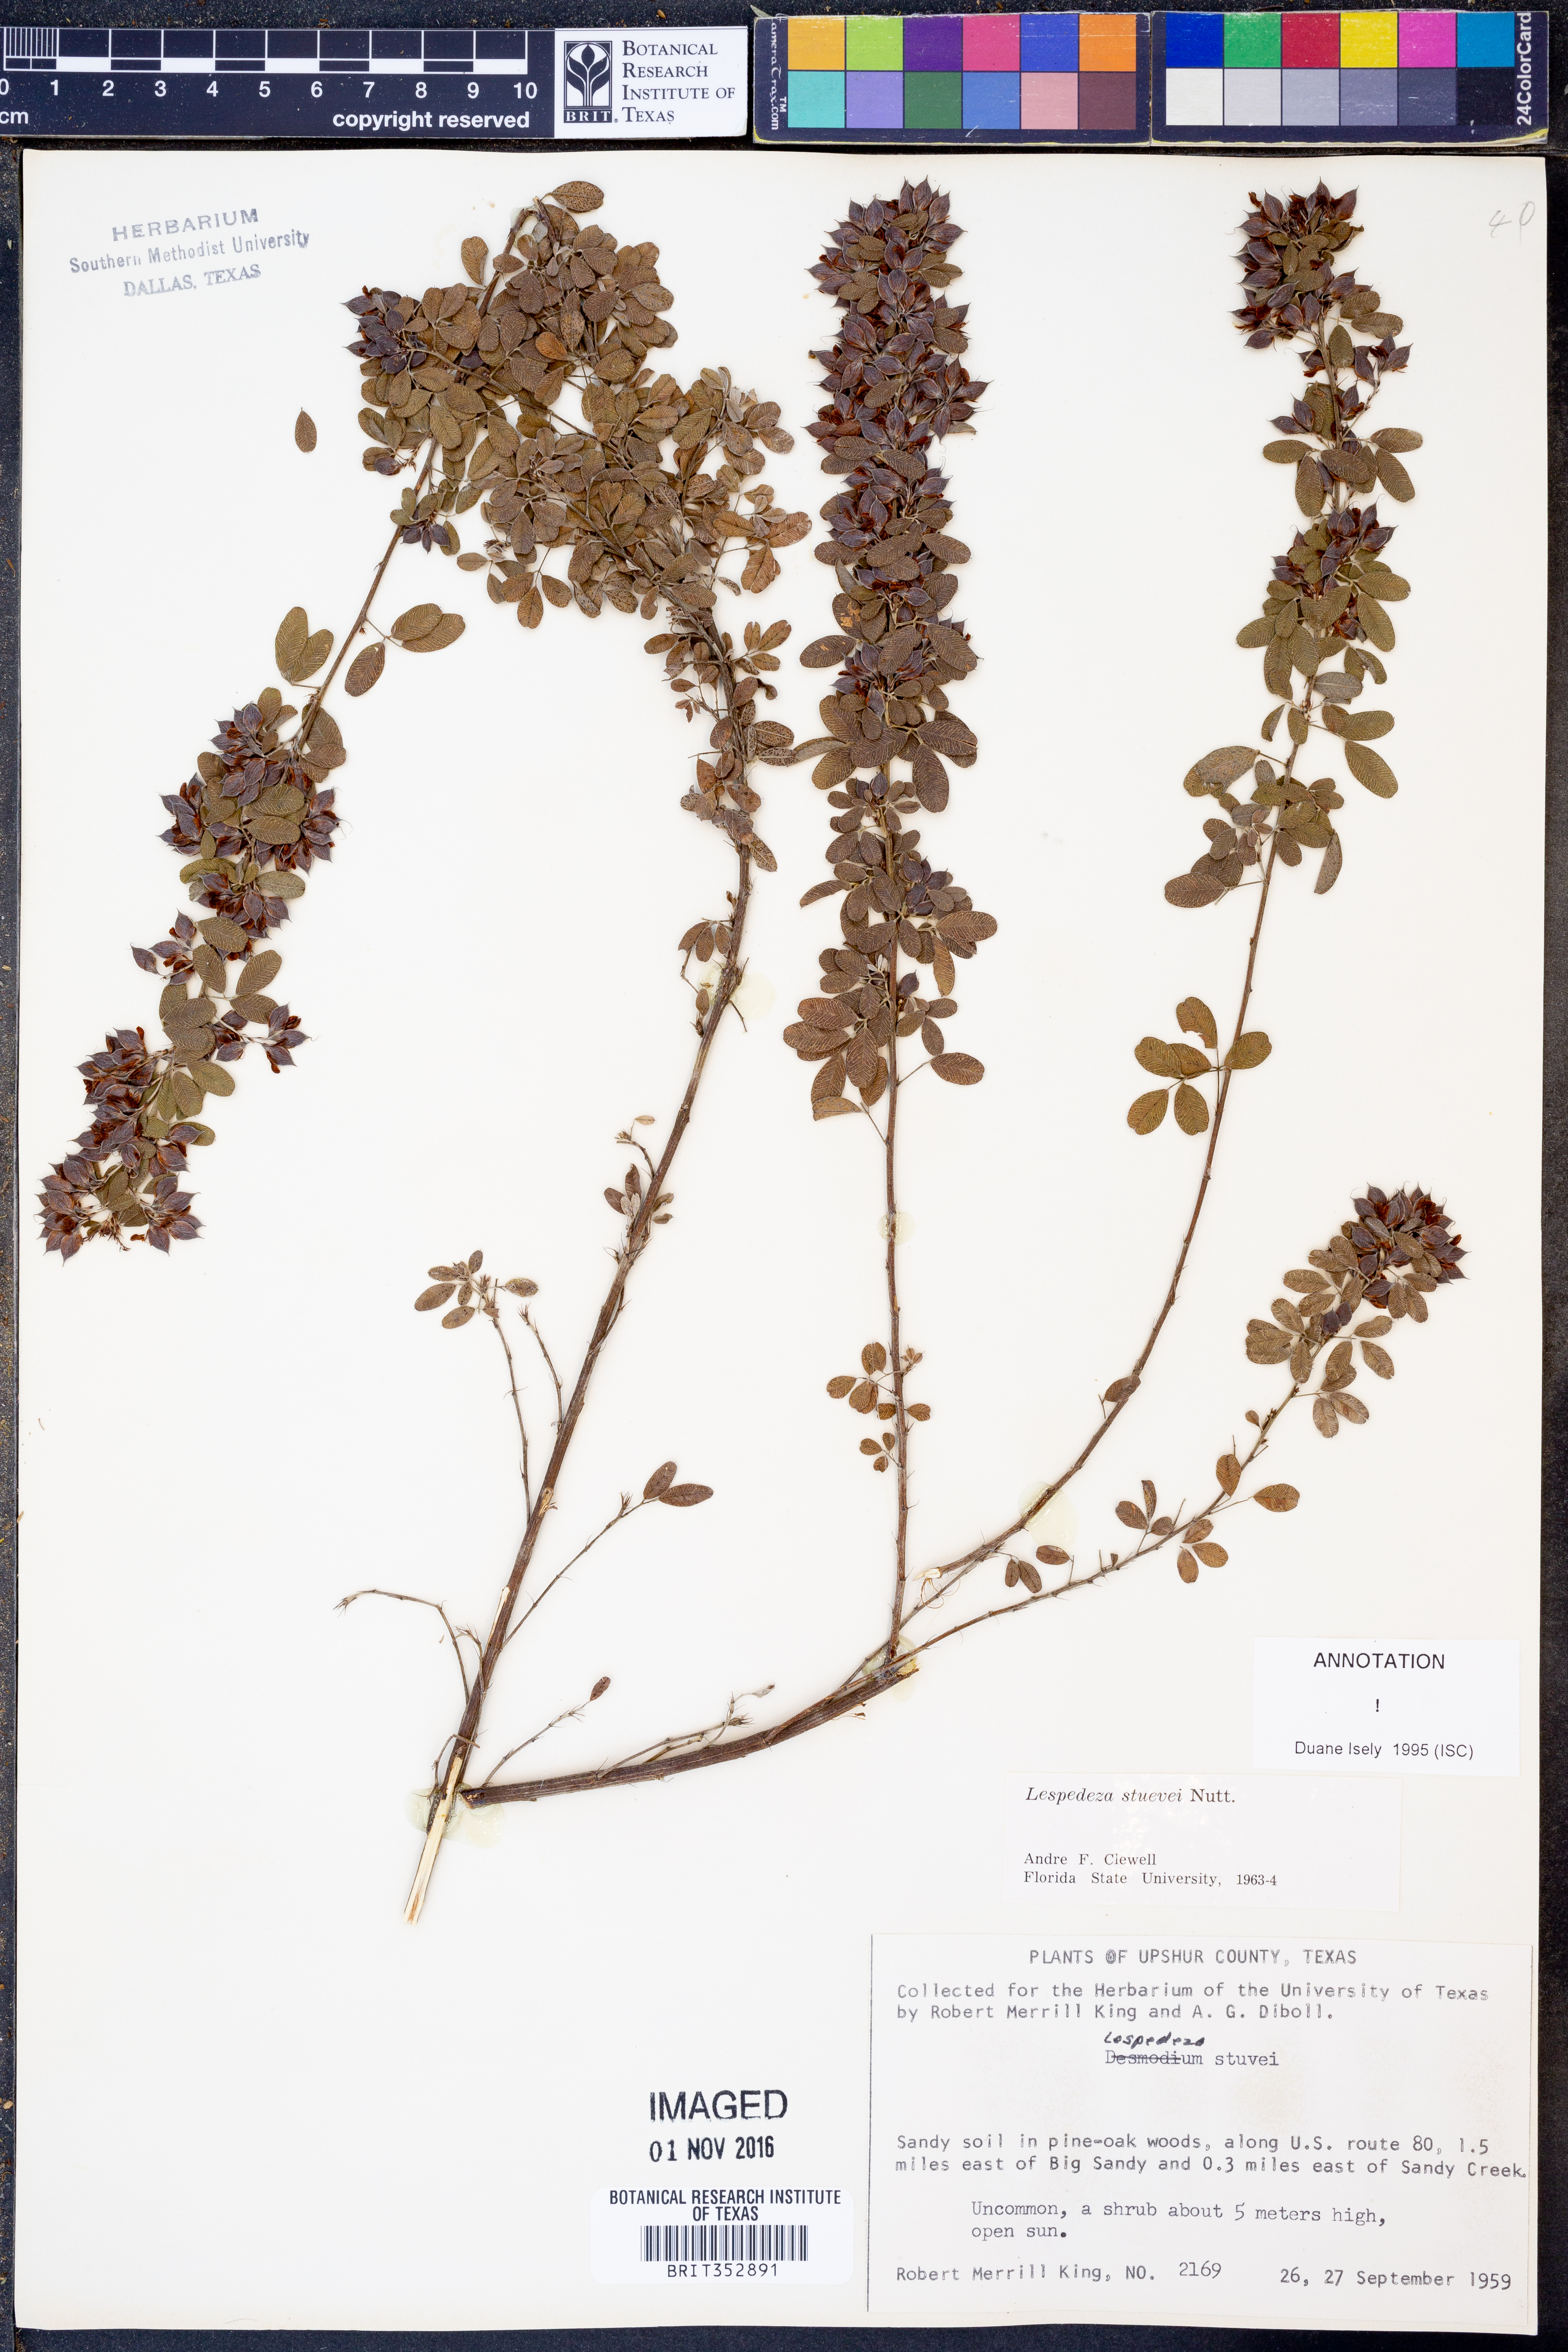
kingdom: Plantae
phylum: Tracheophyta
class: Magnoliopsida
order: Fabales
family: Fabaceae
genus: Lespedeza
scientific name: Lespedeza stuevei
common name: Tall bush-clover
